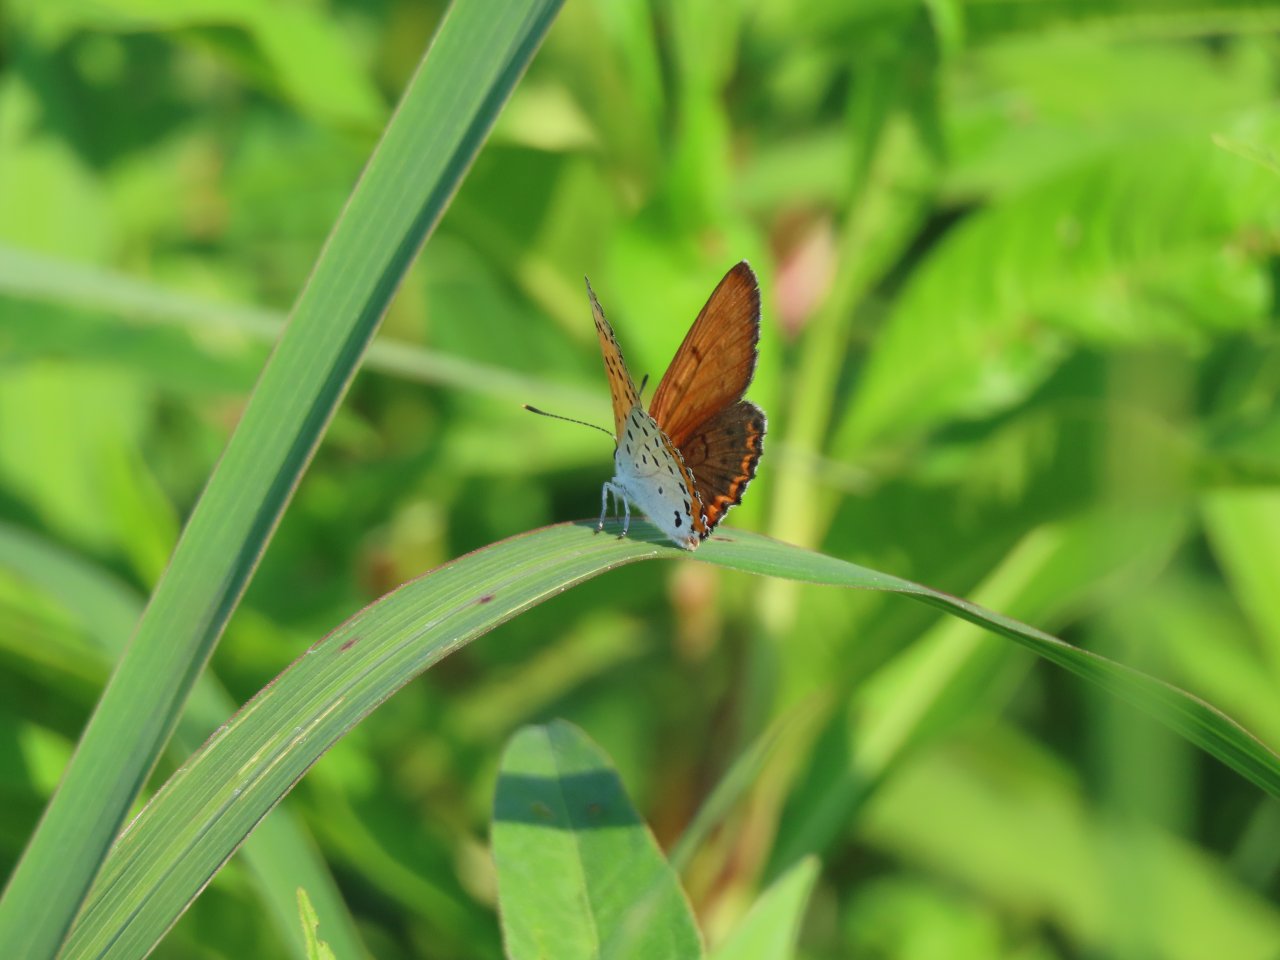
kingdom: Animalia
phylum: Arthropoda
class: Insecta
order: Lepidoptera
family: Sesiidae
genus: Sesia
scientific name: Sesia Lycaena hyllus
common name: Bronze Copper
